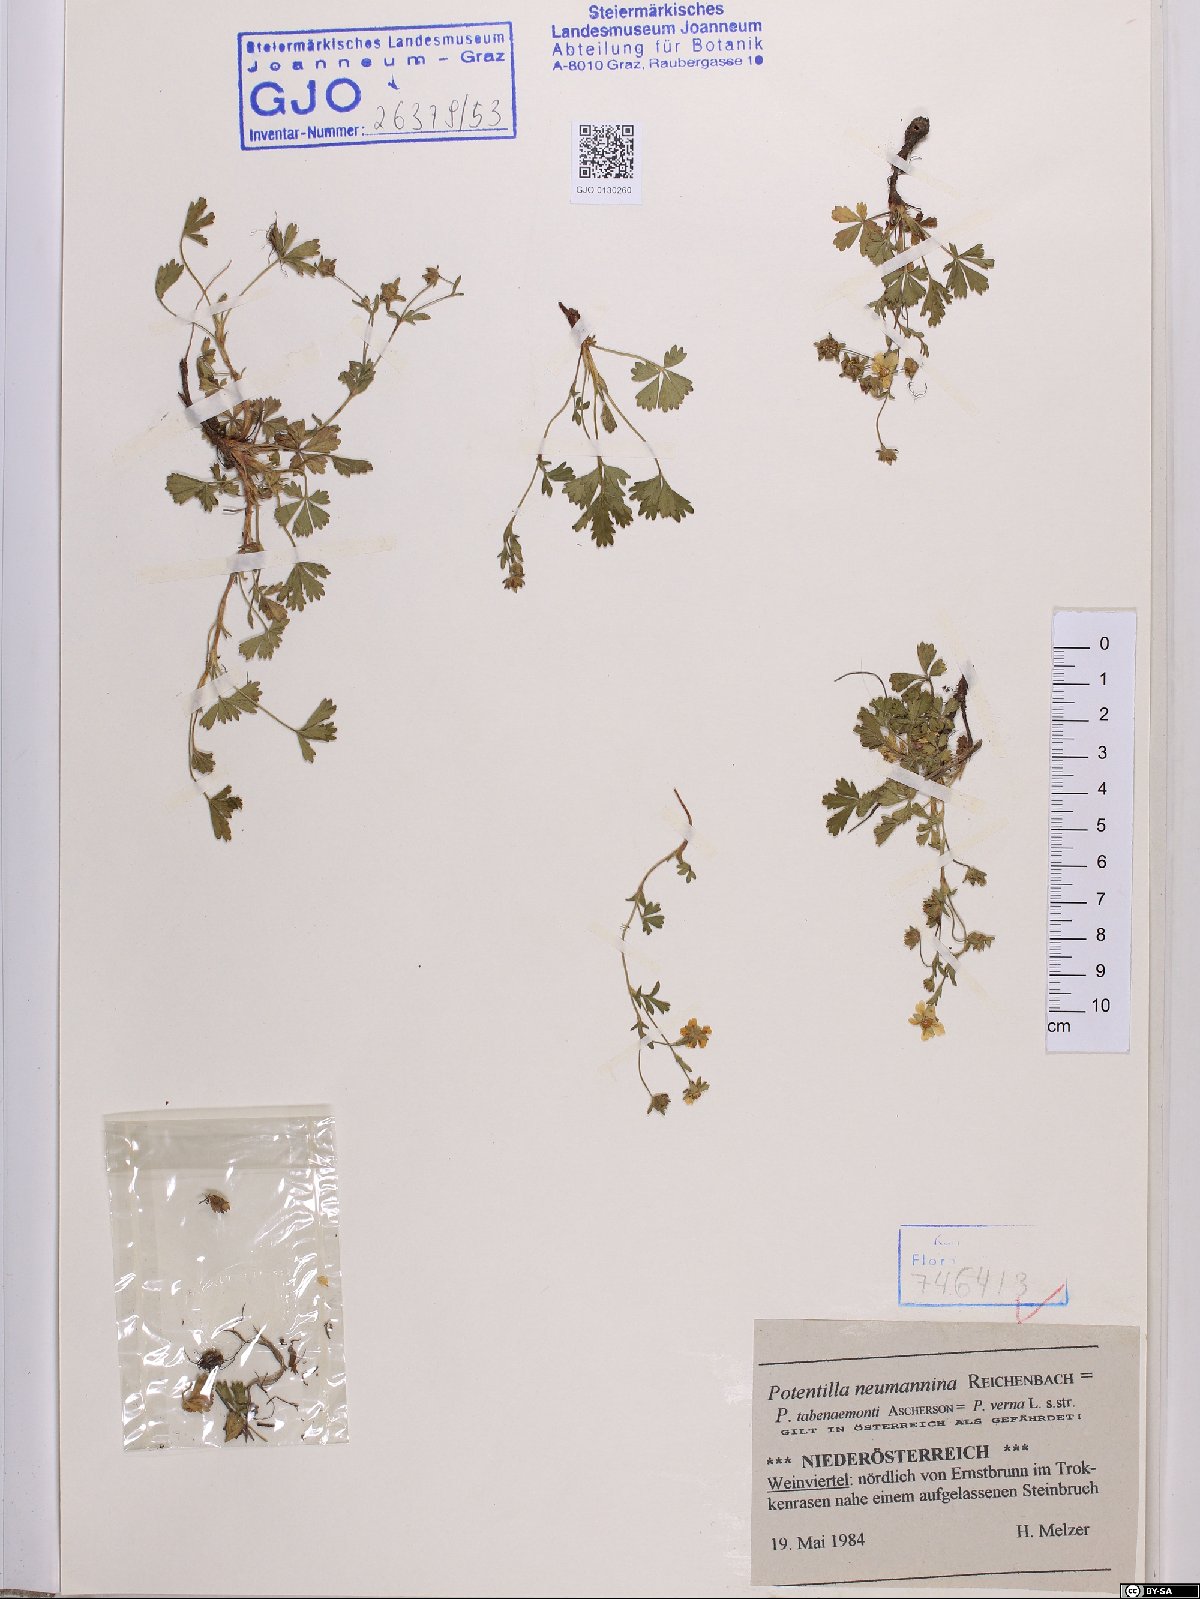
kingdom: Plantae
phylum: Tracheophyta
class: Magnoliopsida
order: Rosales
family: Rosaceae
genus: Potentilla
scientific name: Potentilla verna
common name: Spring cinquefoil
